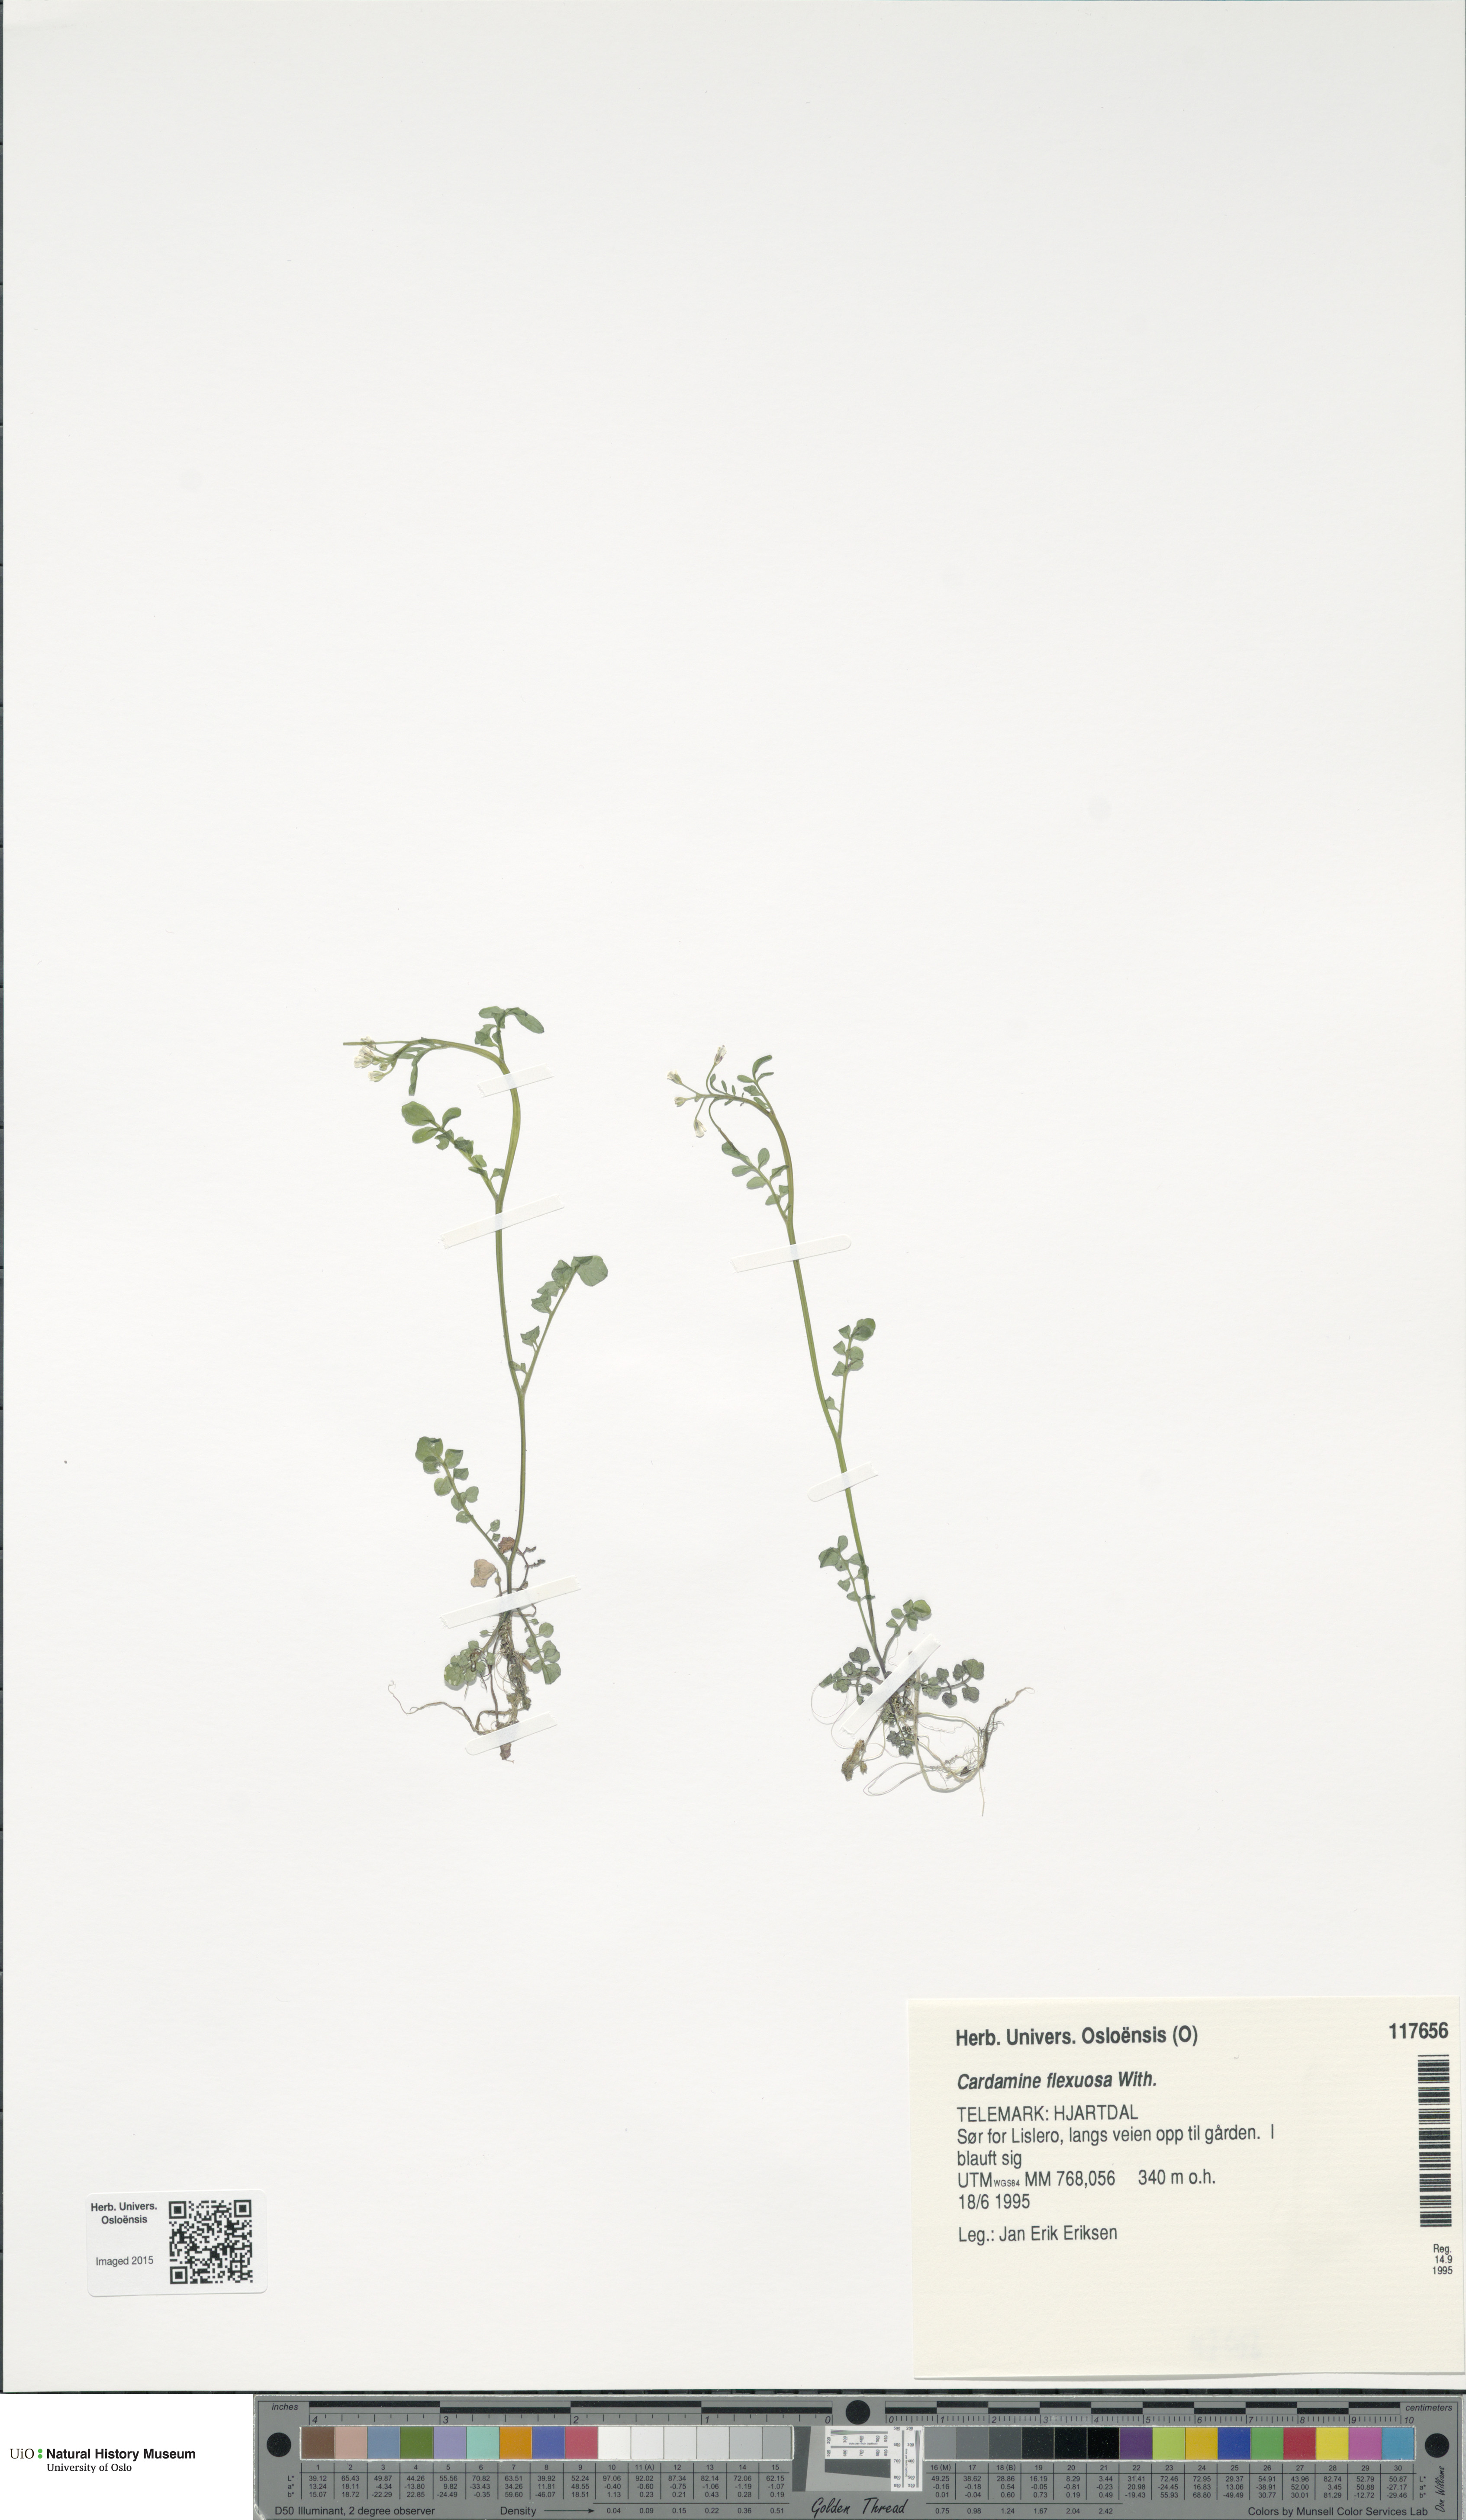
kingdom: Plantae
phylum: Tracheophyta
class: Magnoliopsida
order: Brassicales
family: Brassicaceae
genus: Cardamine
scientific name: Cardamine flexuosa
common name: Woodland bittercress
